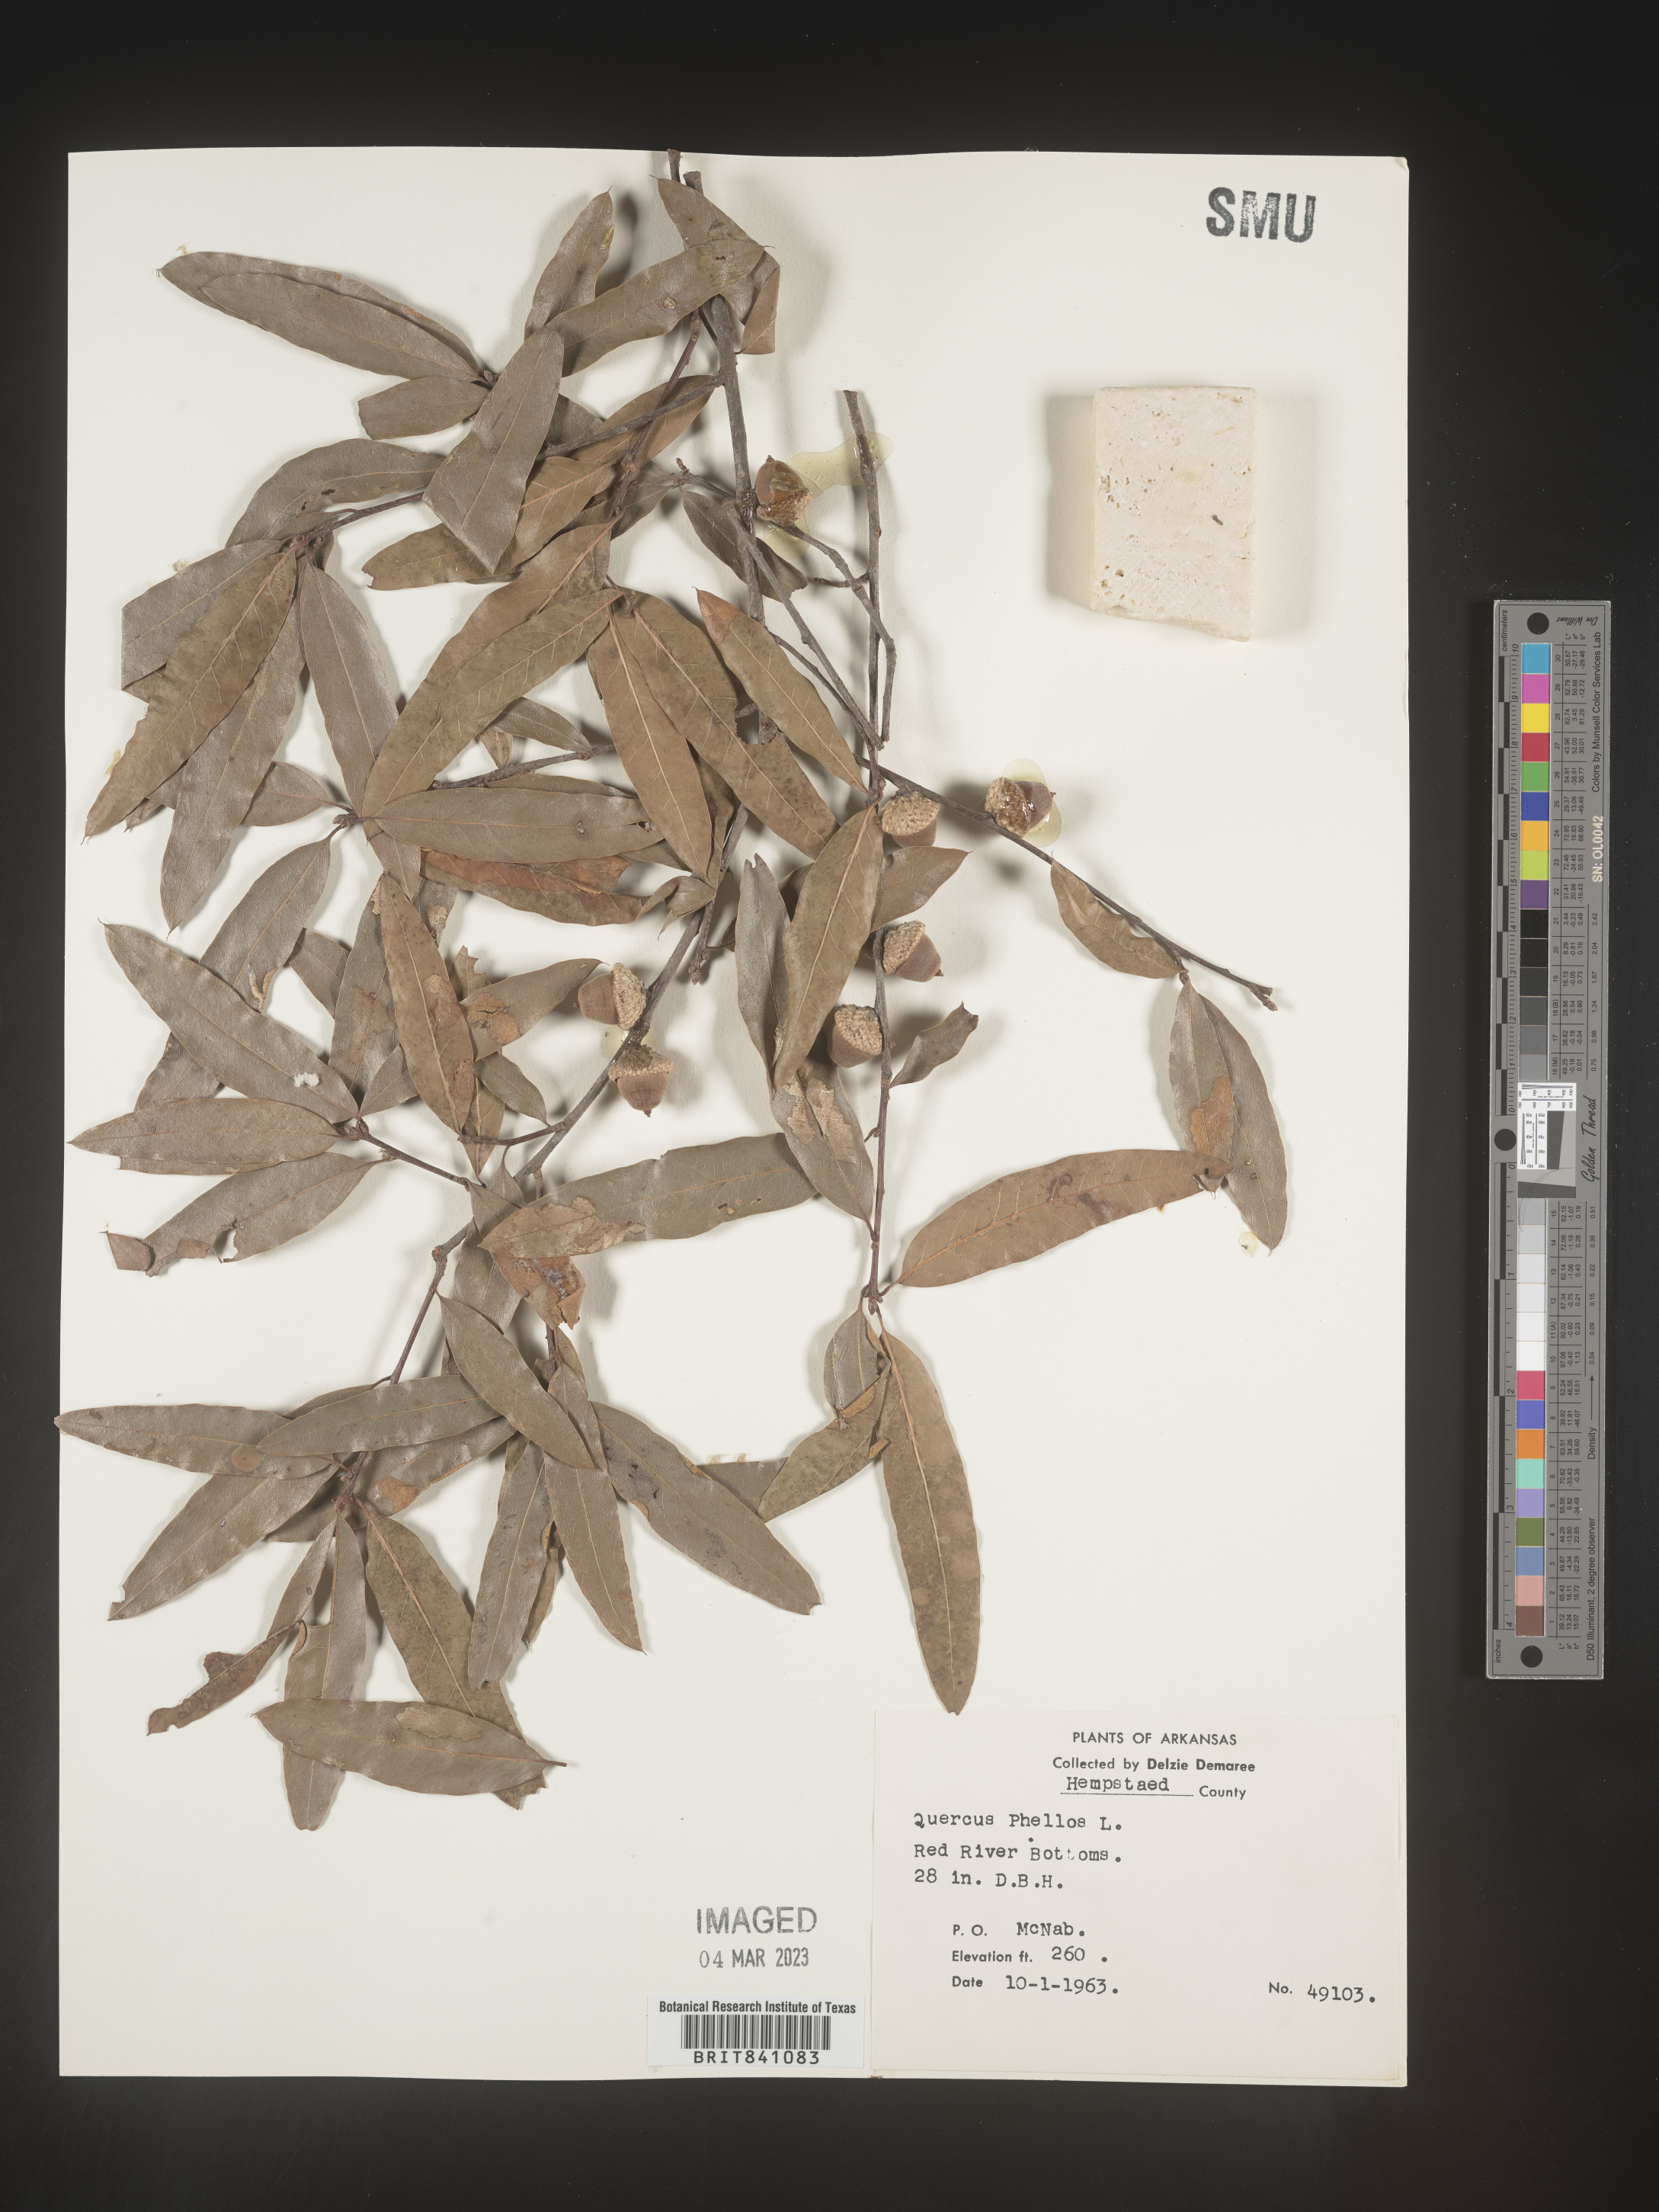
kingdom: Plantae
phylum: Tracheophyta
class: Magnoliopsida
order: Fagales
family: Fagaceae
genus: Quercus
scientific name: Quercus phellos
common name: Willow oak
